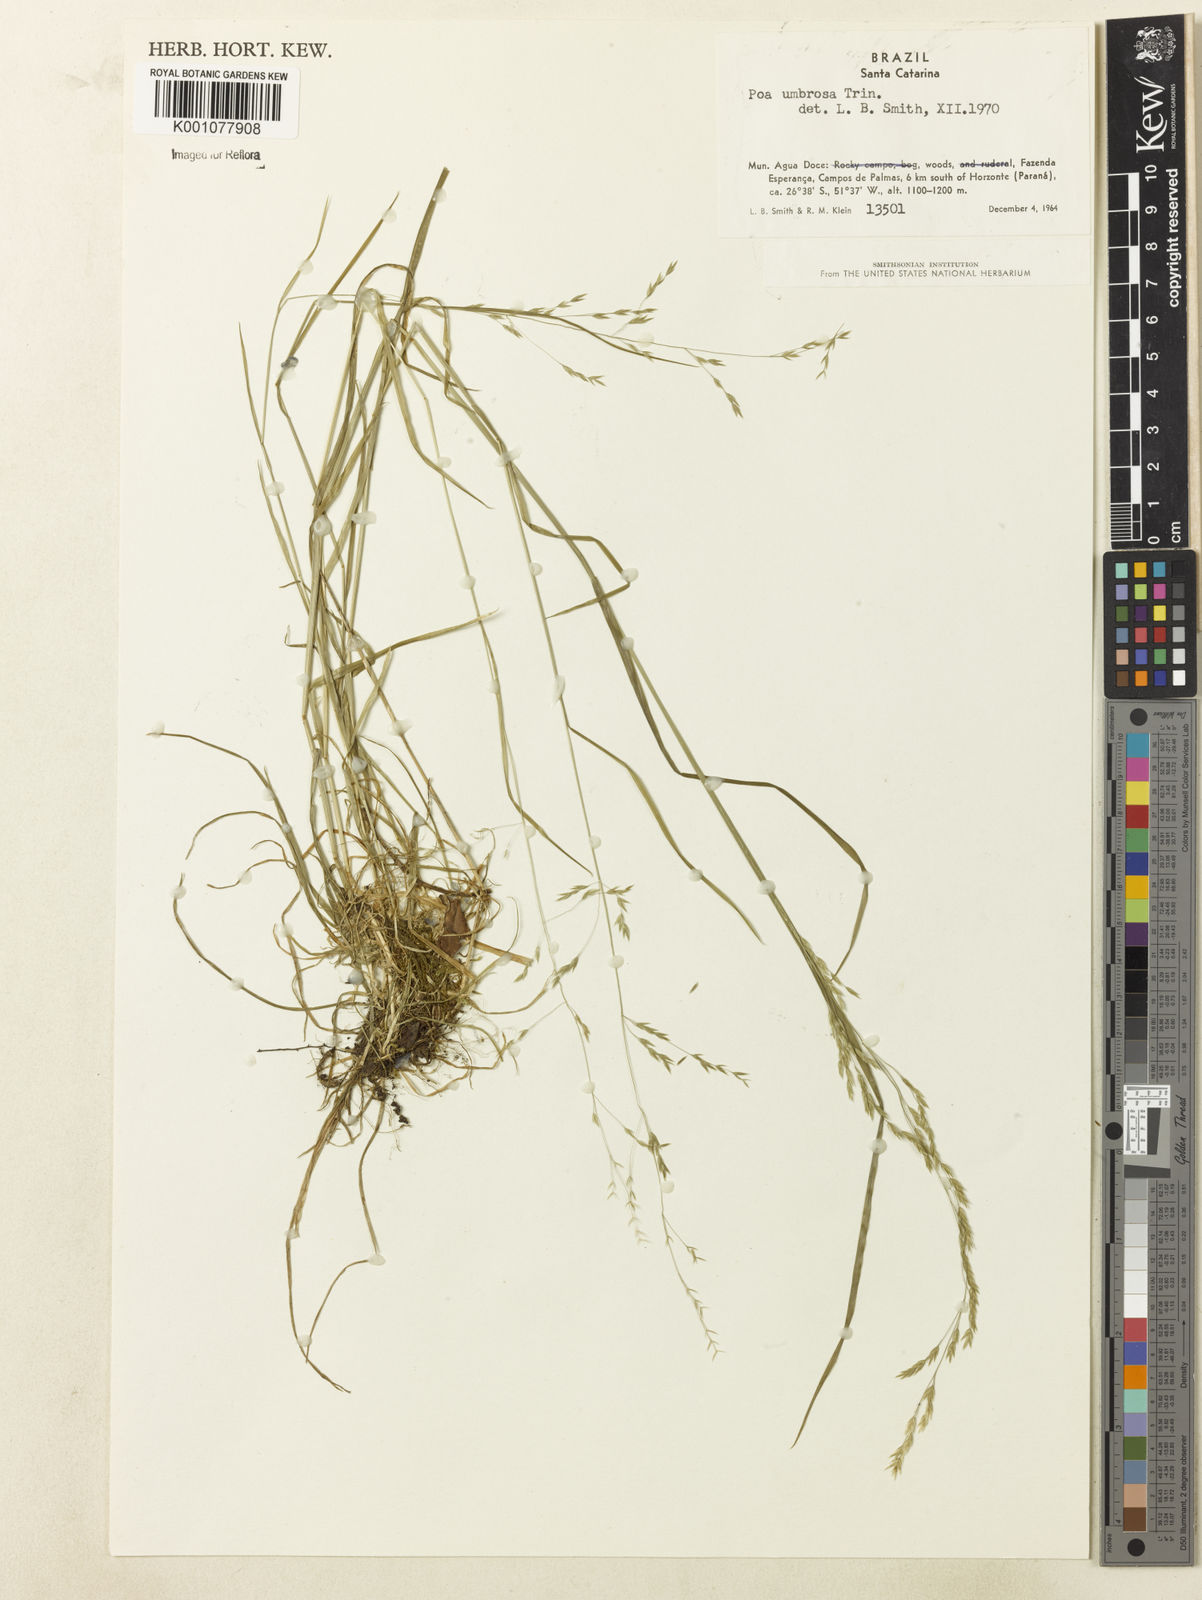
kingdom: Plantae
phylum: Tracheophyta
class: Liliopsida
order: Poales
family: Poaceae
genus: Poa
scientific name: Poa umbrosa
